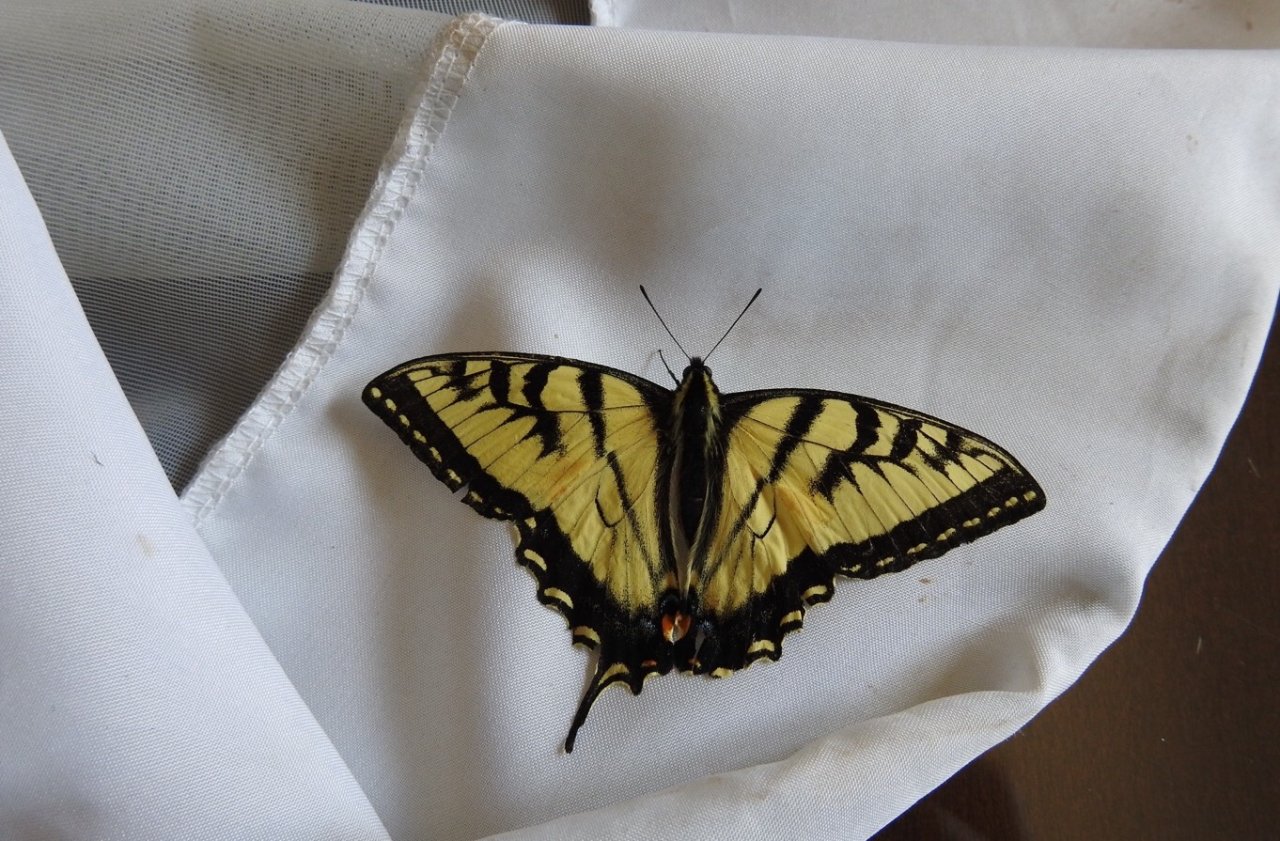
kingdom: Animalia
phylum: Arthropoda
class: Insecta
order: Lepidoptera
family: Papilionidae
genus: Pterourus
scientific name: Pterourus canadensis
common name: Canadian Tiger Swallowtail
